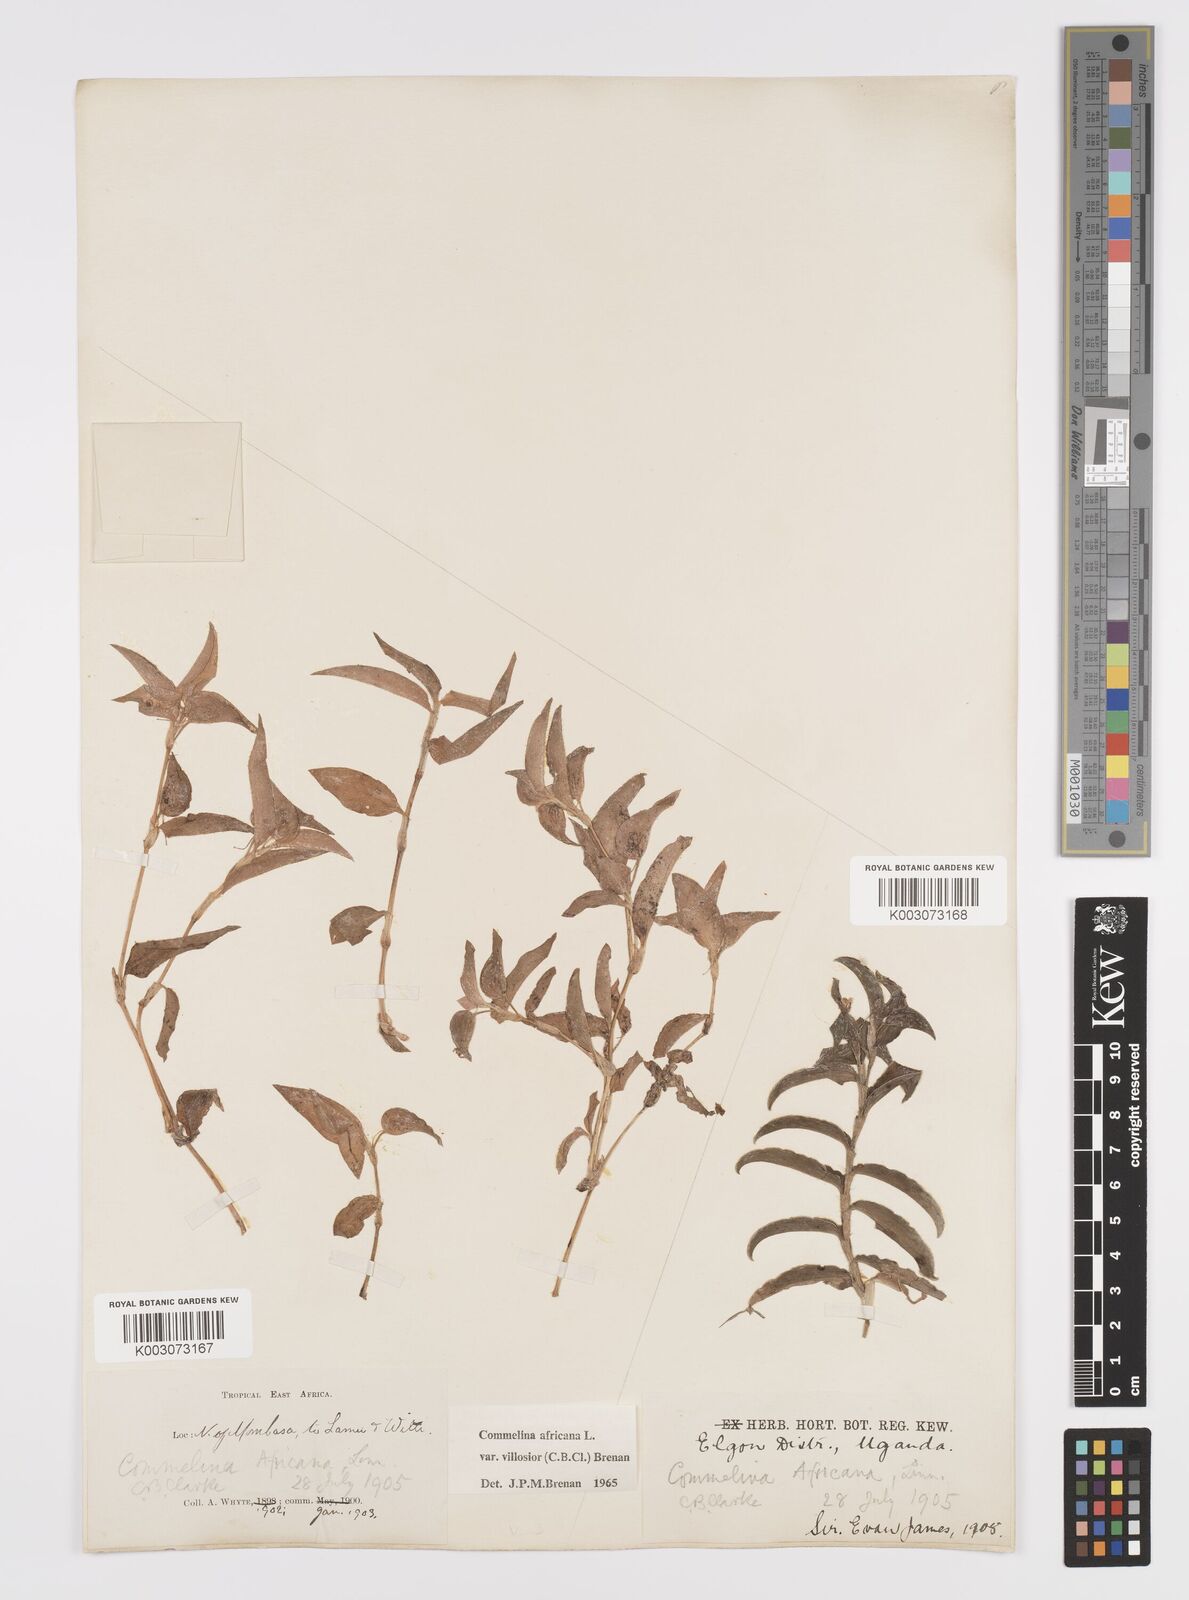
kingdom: Plantae
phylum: Tracheophyta
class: Liliopsida
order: Commelinales
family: Commelinaceae
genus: Commelina
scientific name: Commelina africana
